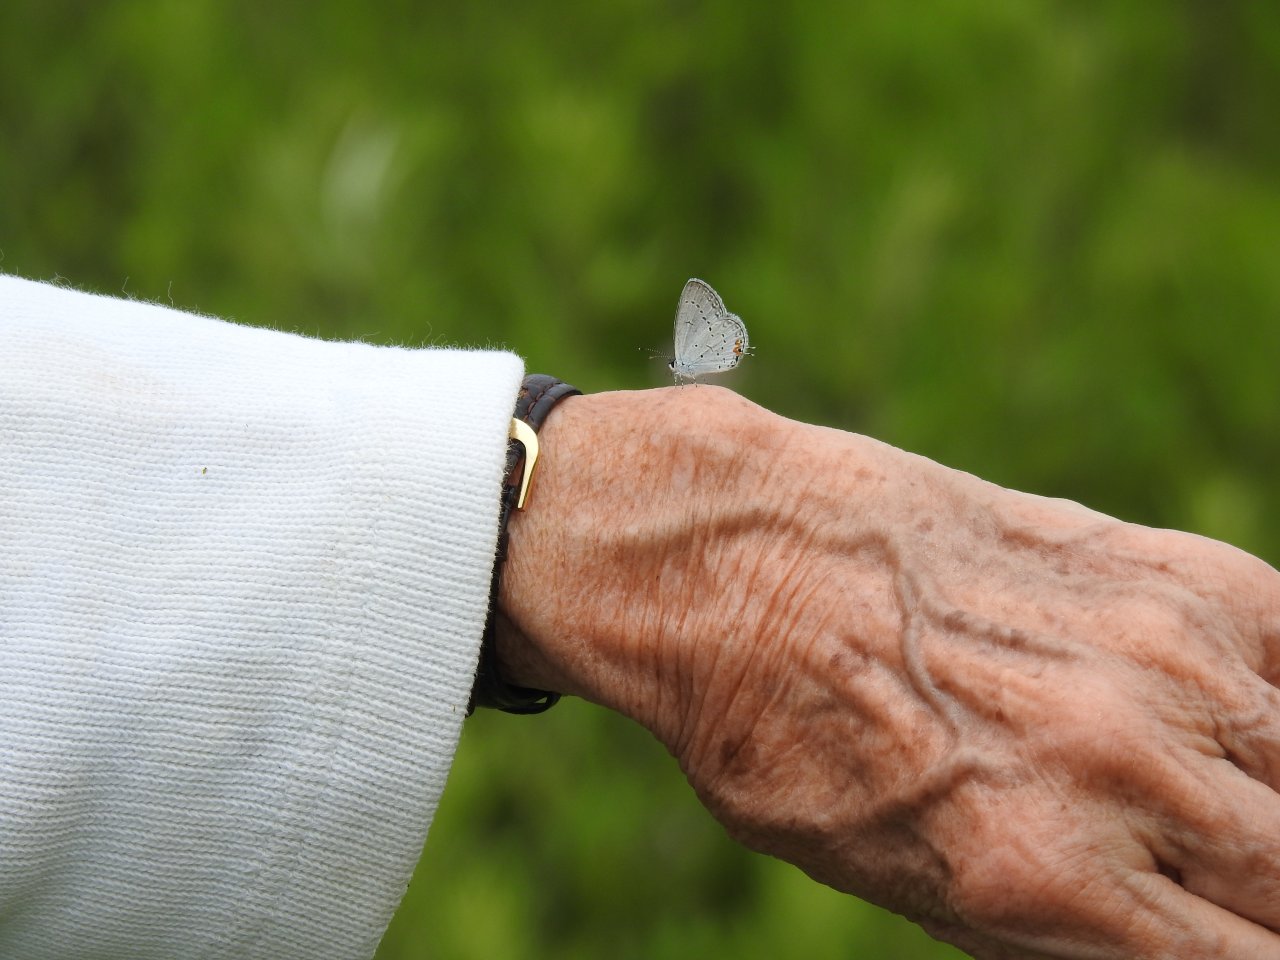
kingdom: Animalia
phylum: Arthropoda
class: Insecta
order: Lepidoptera
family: Lycaenidae
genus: Elkalyce
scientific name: Elkalyce comyntas
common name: Eastern Tailed-Blue
